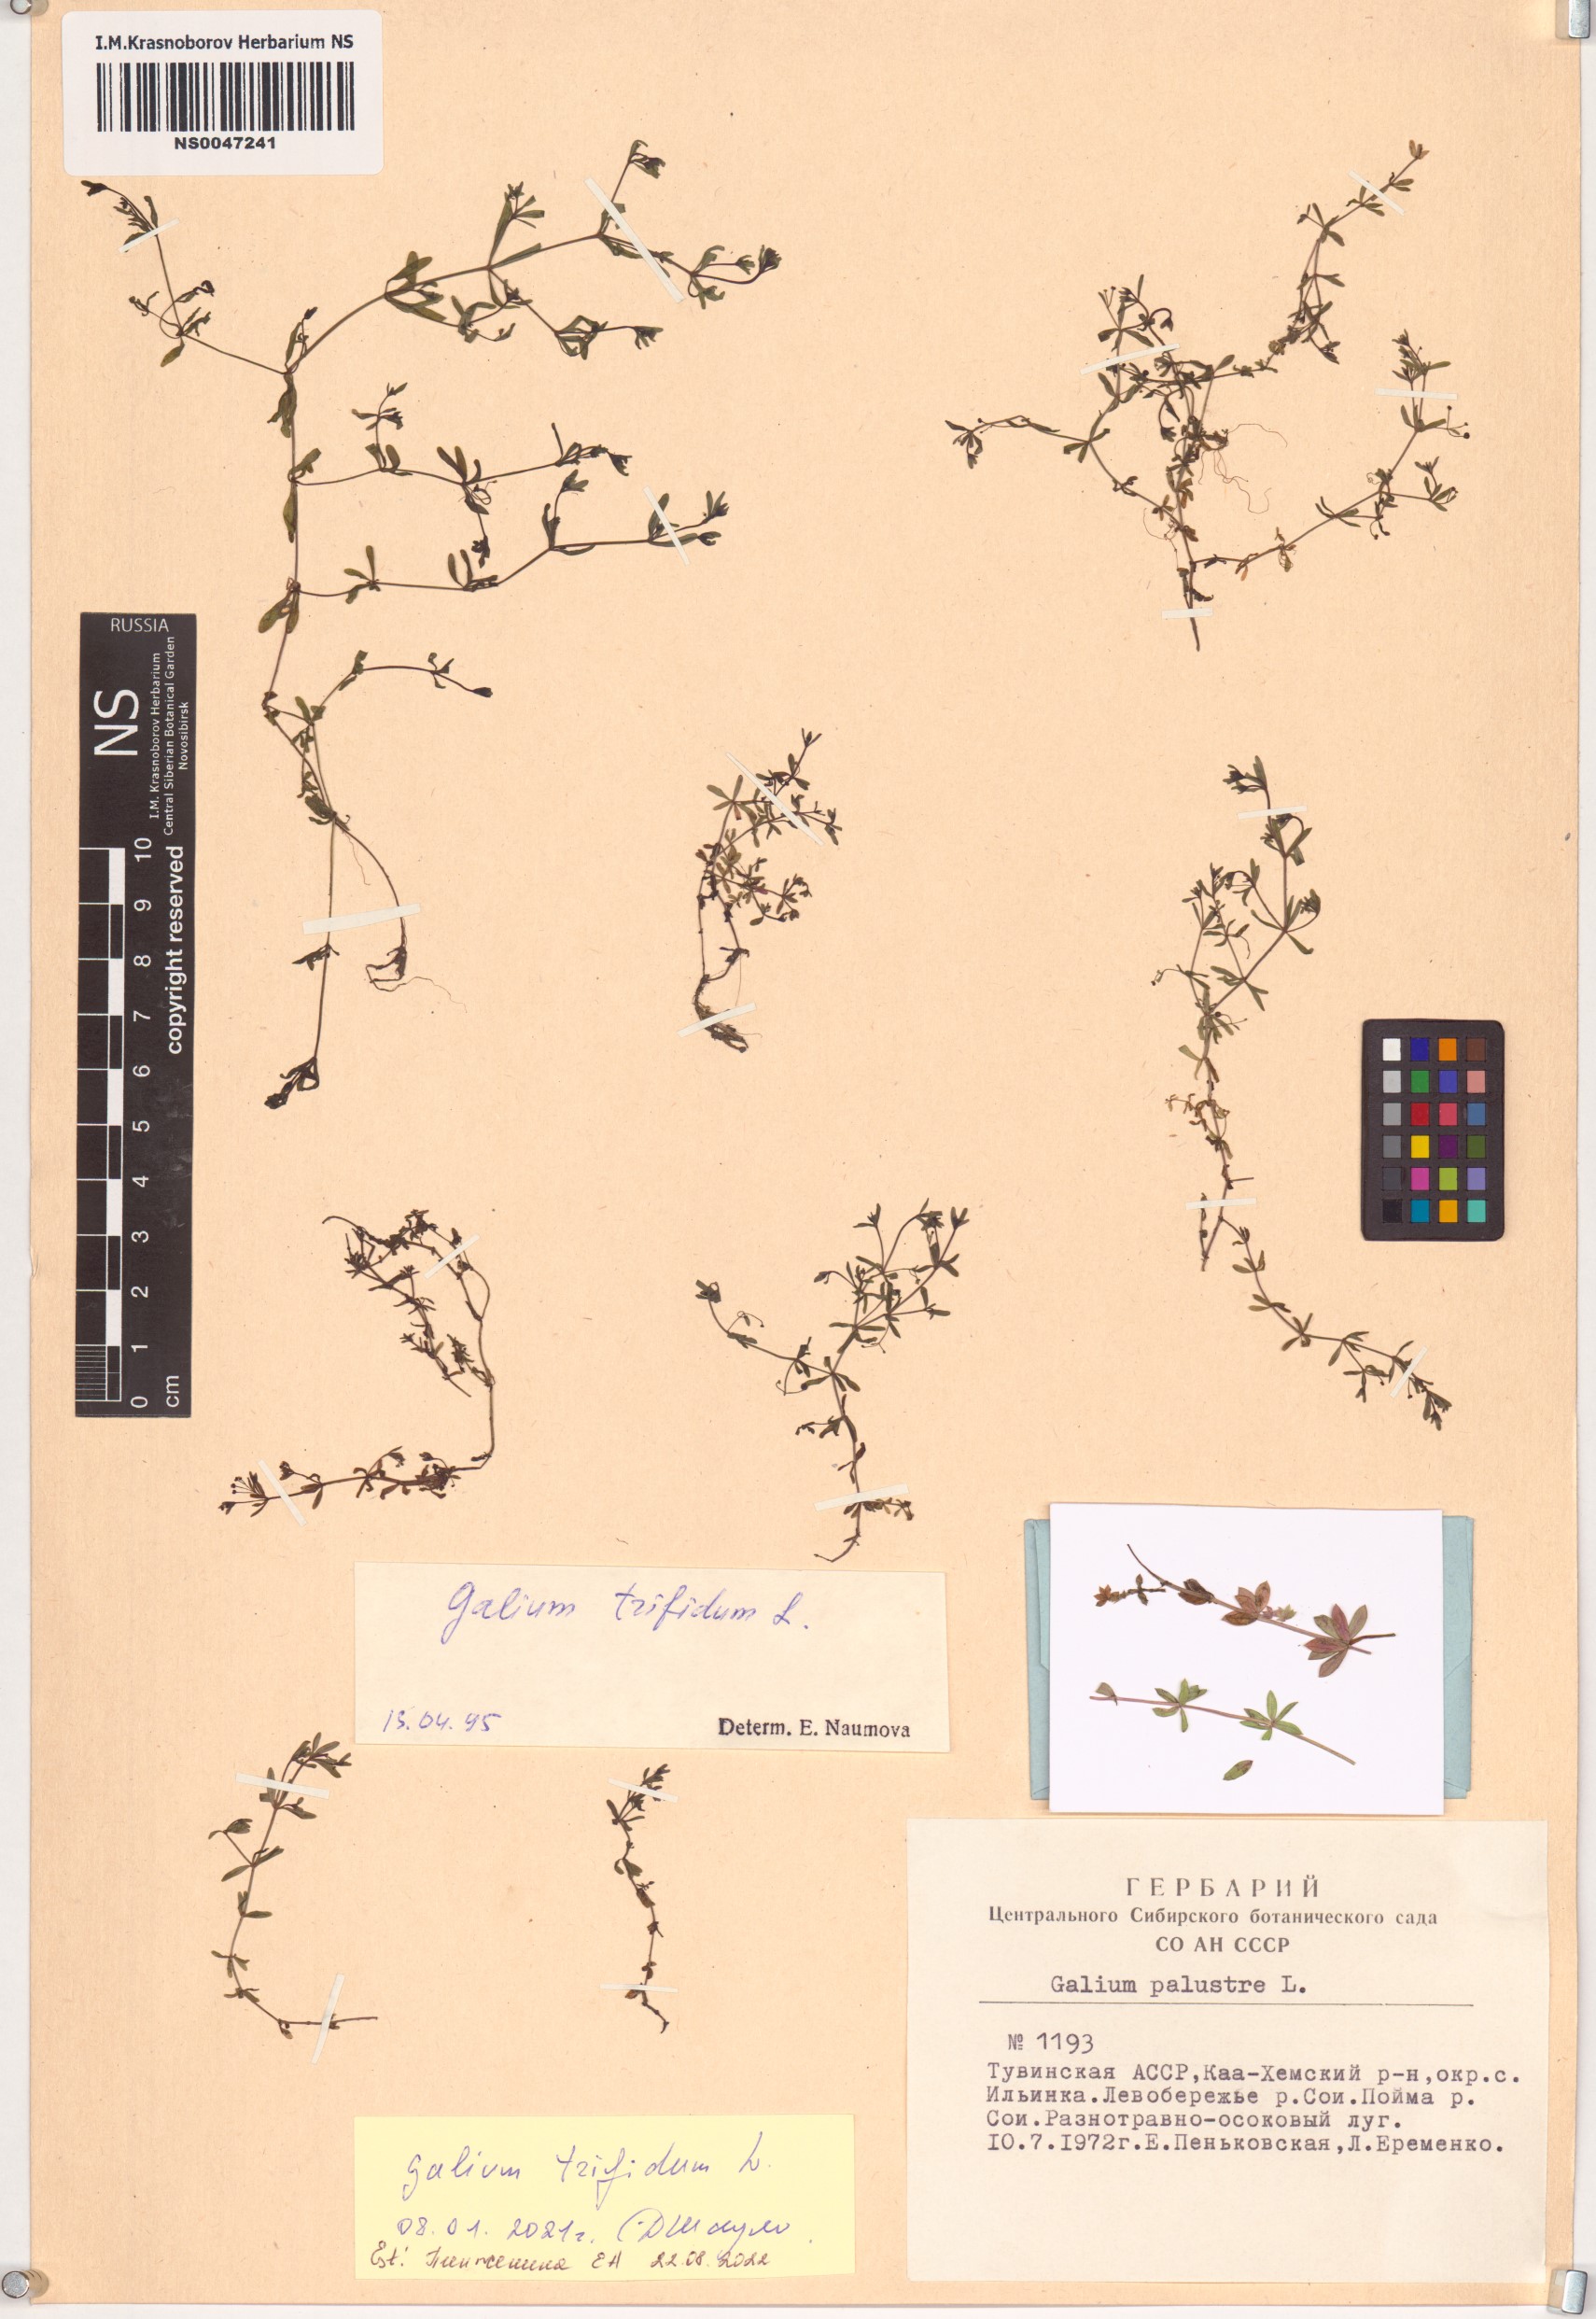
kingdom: Plantae
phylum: Tracheophyta
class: Magnoliopsida
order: Gentianales
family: Rubiaceae
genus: Galium
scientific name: Galium trifidum
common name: Small bedstraw
